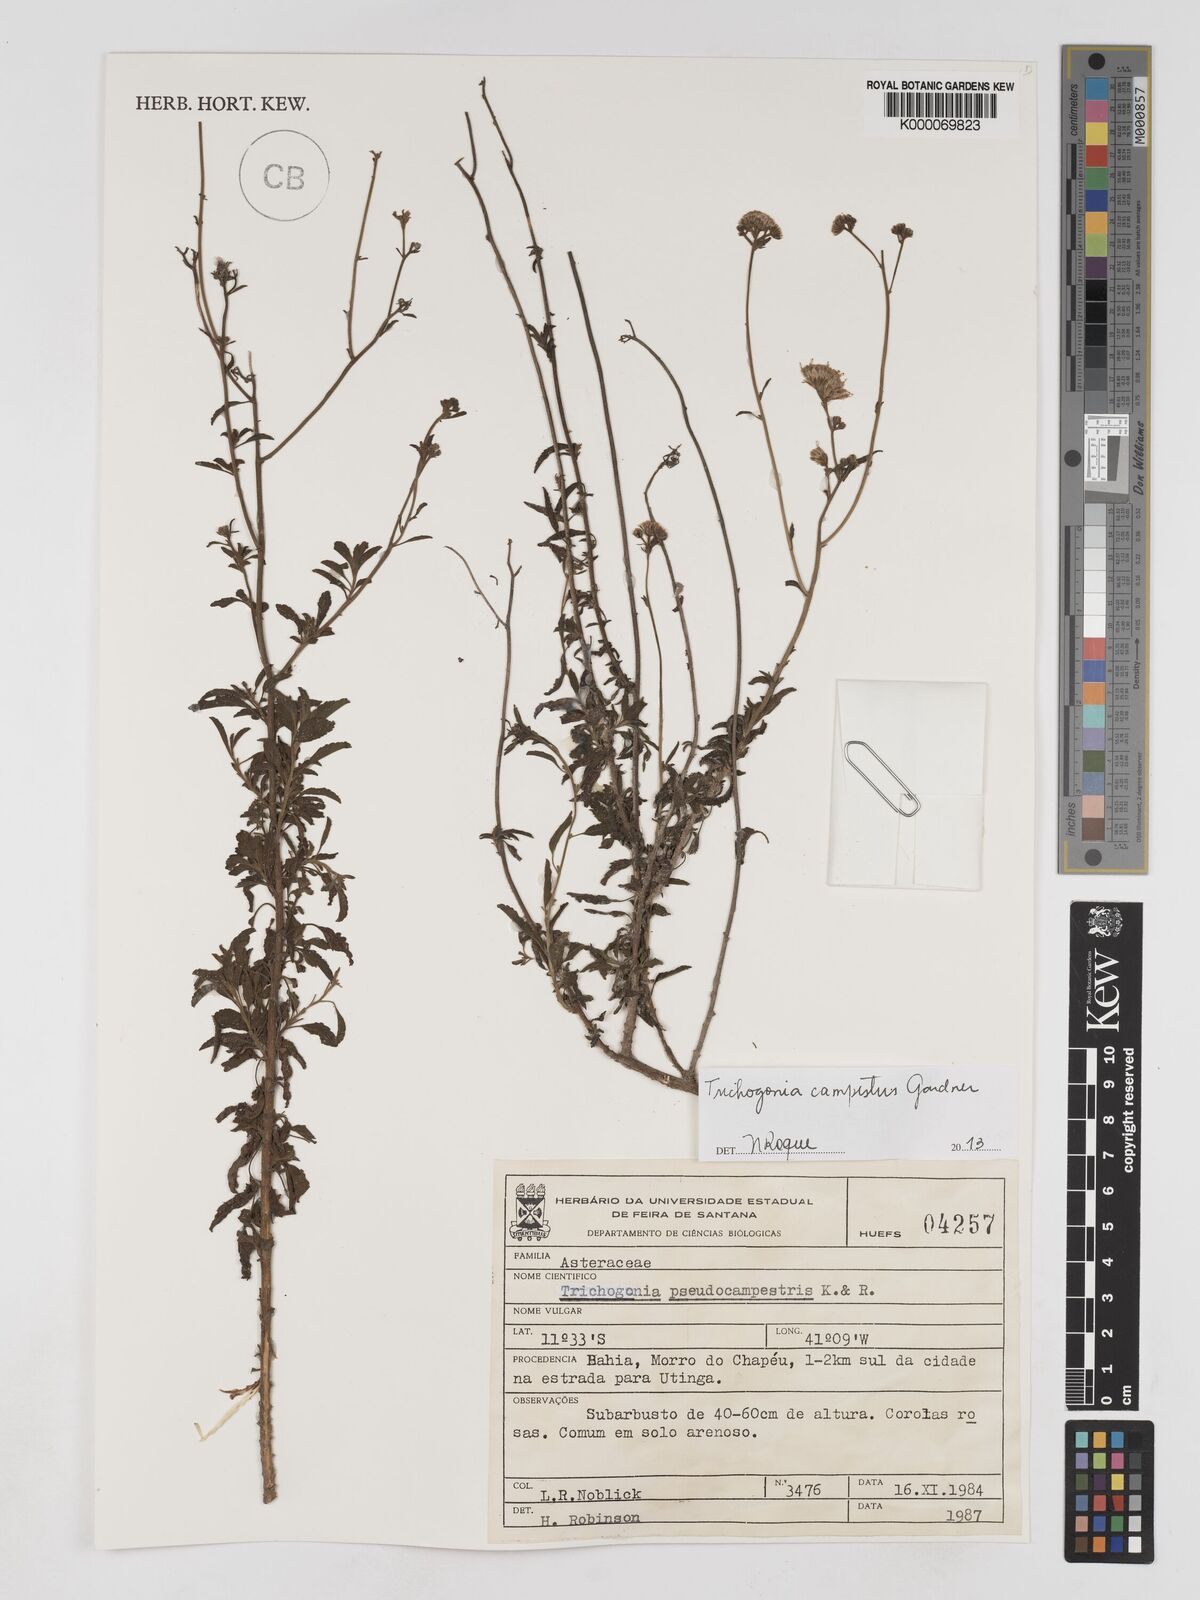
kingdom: Plantae
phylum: Tracheophyta
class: Magnoliopsida
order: Asterales
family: Asteraceae
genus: Trichogonia
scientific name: Trichogonia campestris
